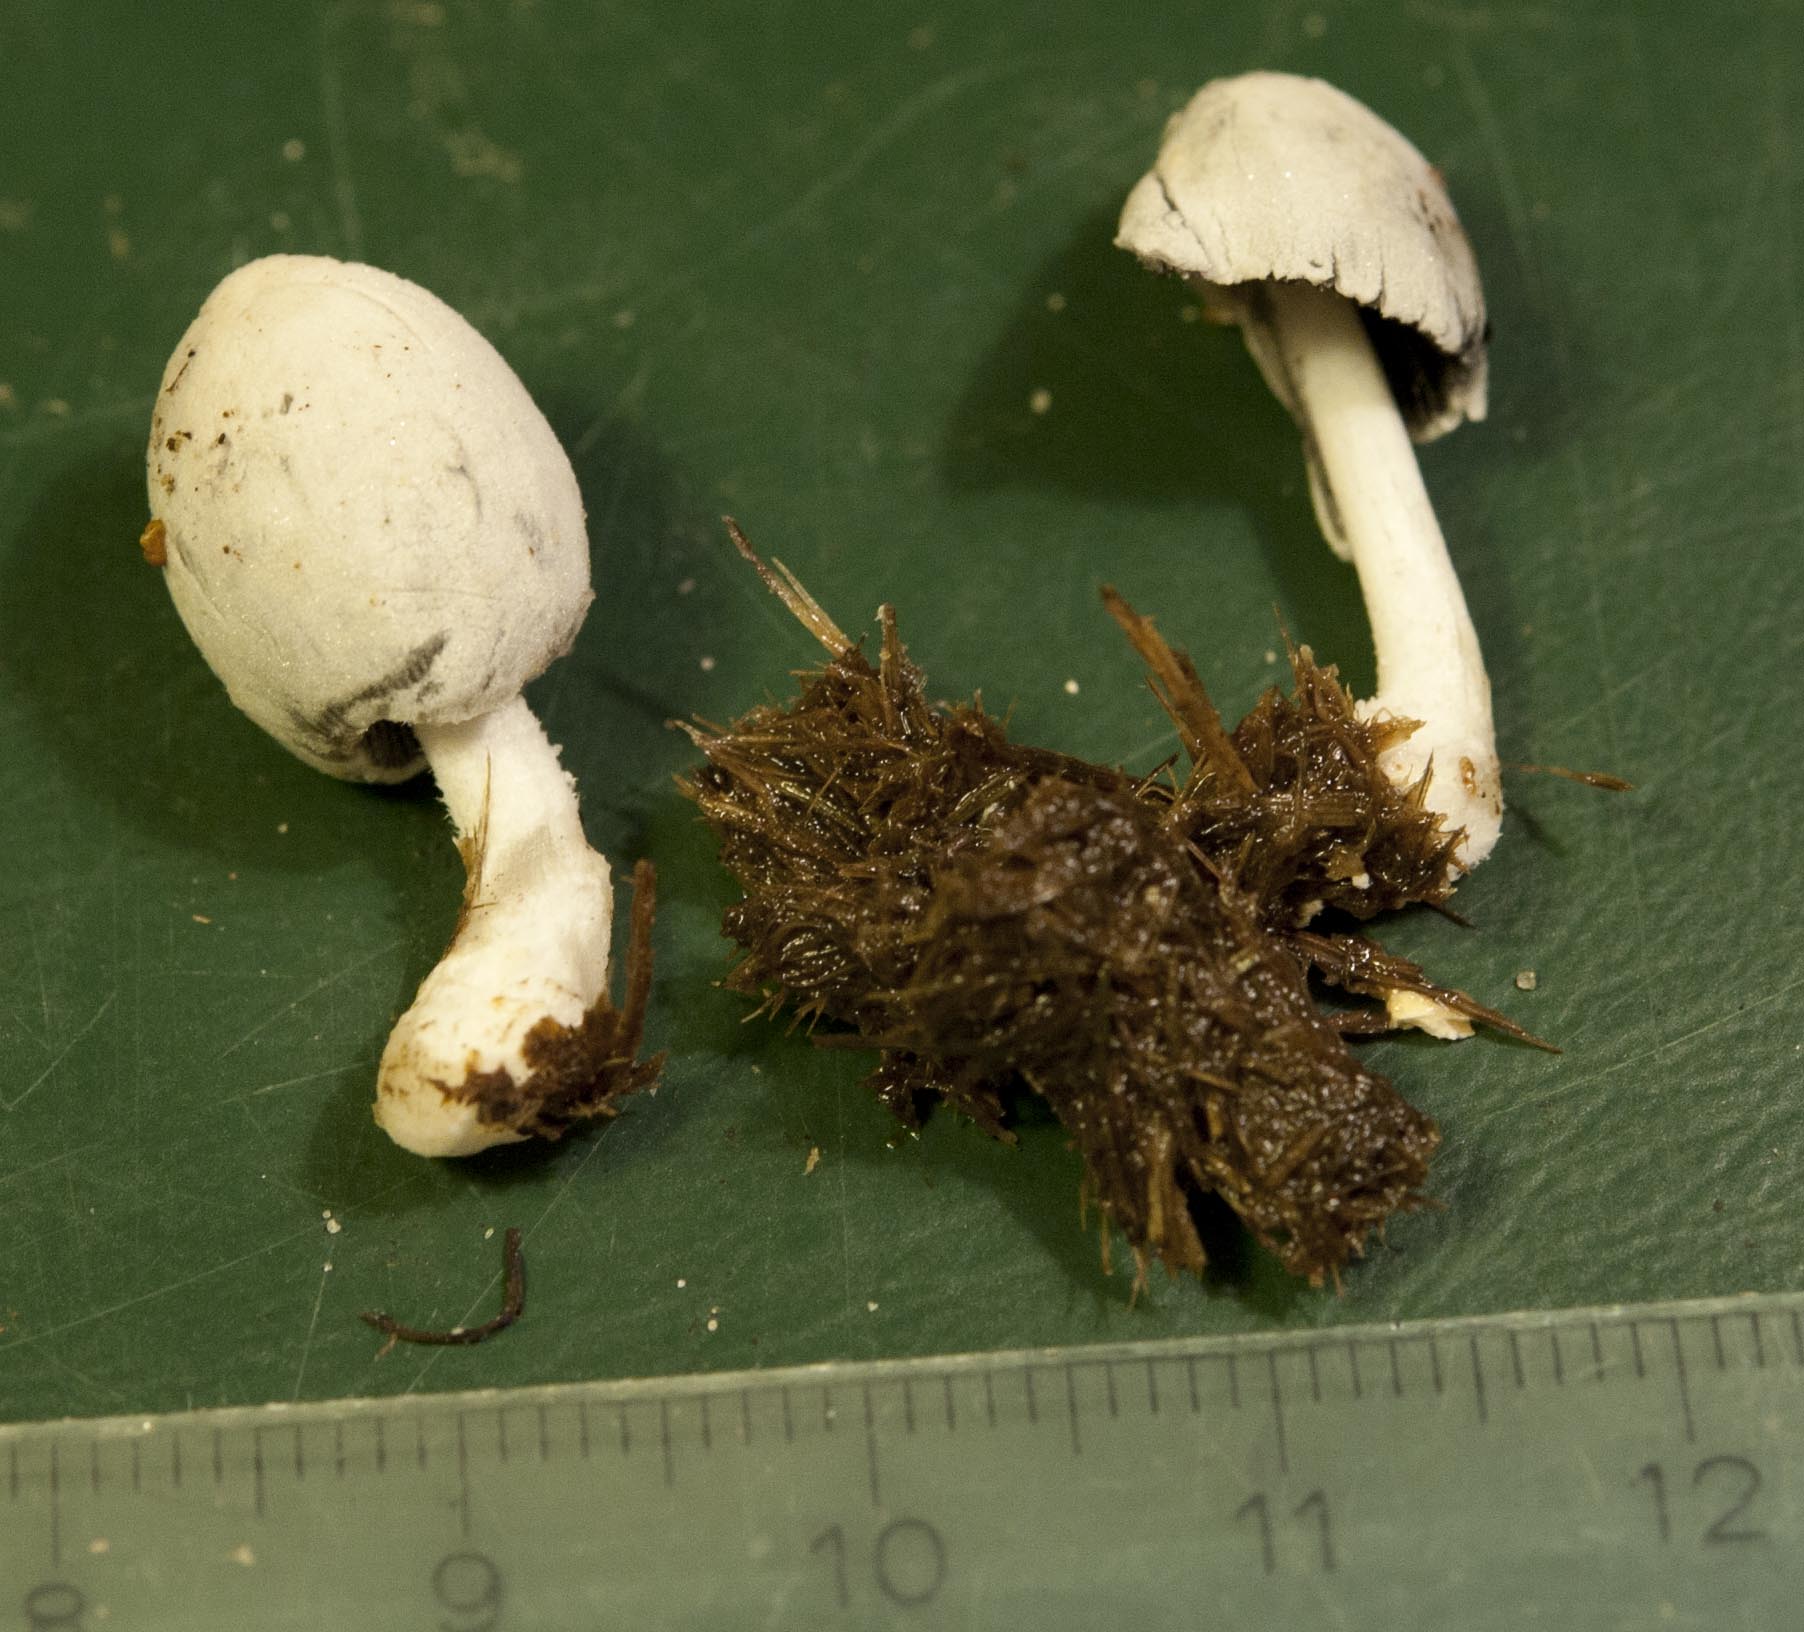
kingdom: Fungi
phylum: Basidiomycota
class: Agaricomycetes
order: Agaricales
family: Psathyrellaceae
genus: Coprinopsis
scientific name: Coprinopsis nivea
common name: snehvid blækhat
